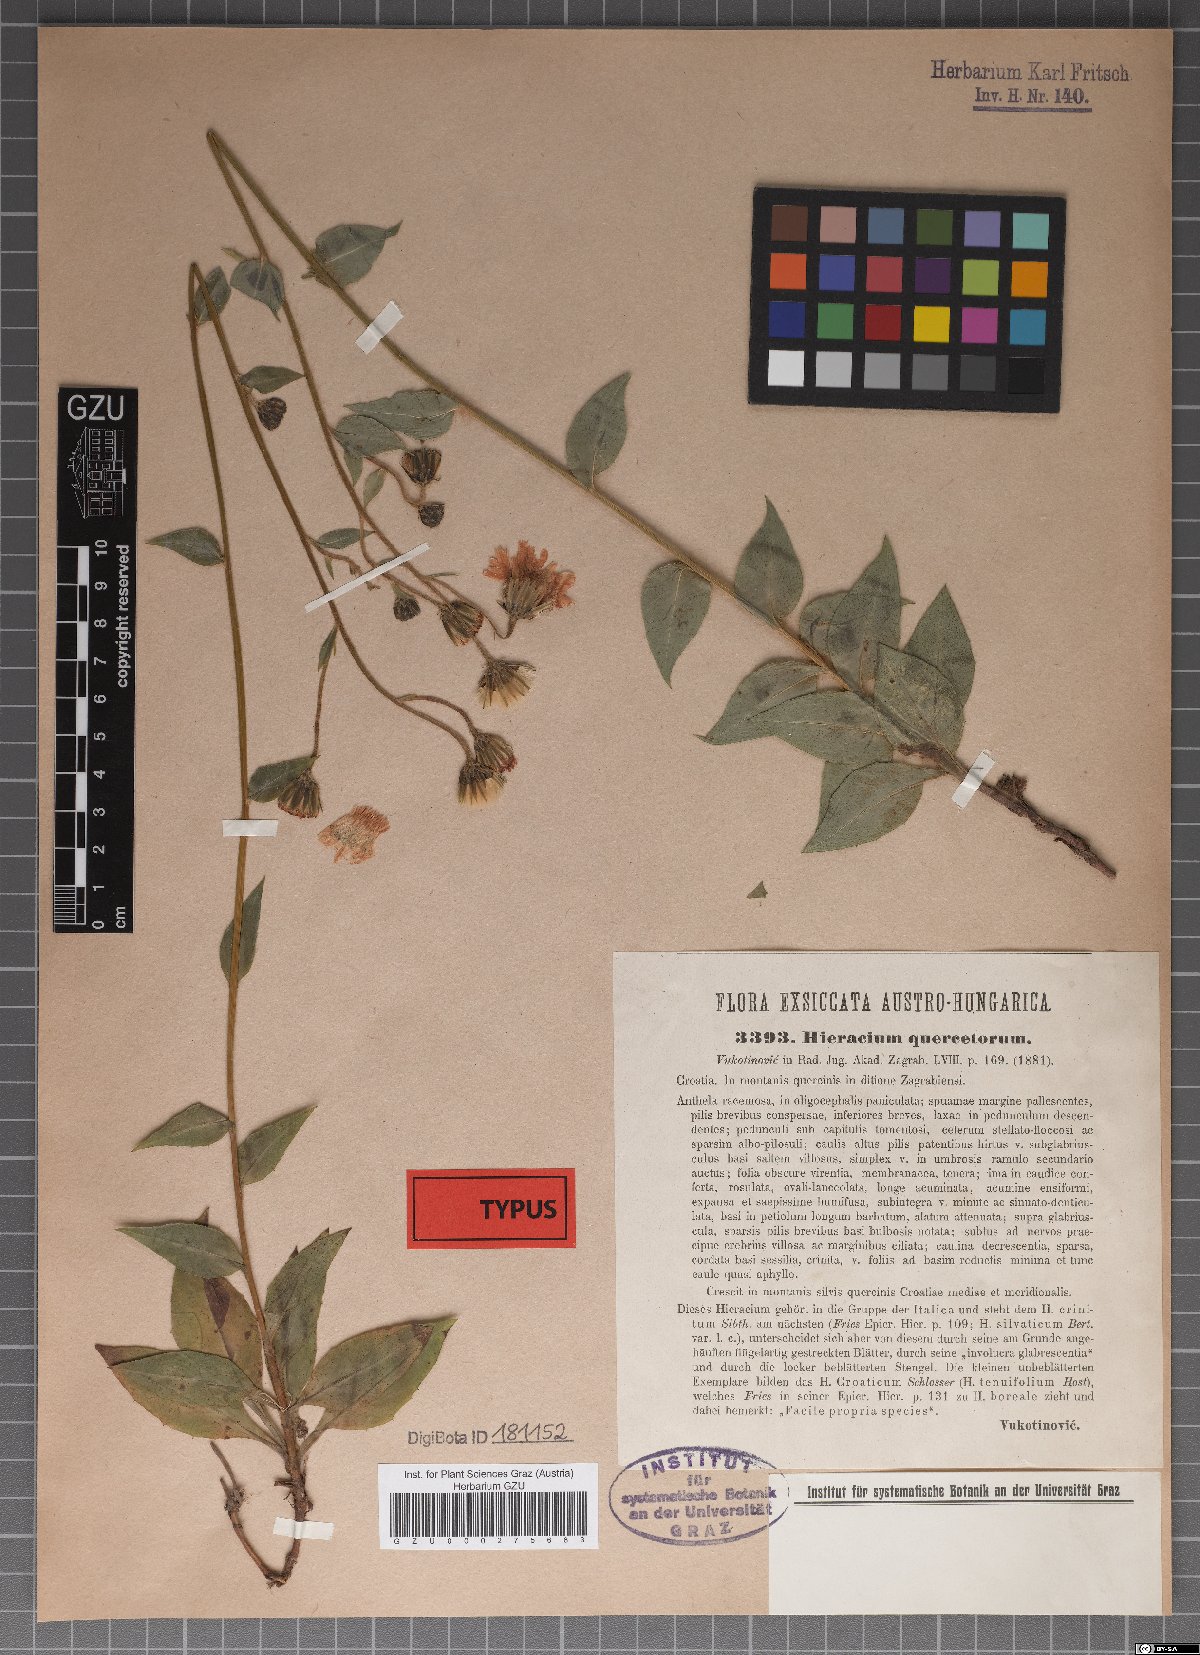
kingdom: Plantae
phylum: Tracheophyta
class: Magnoliopsida
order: Asterales
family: Asteraceae
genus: Hieracium
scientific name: Hieracium quercetorum
